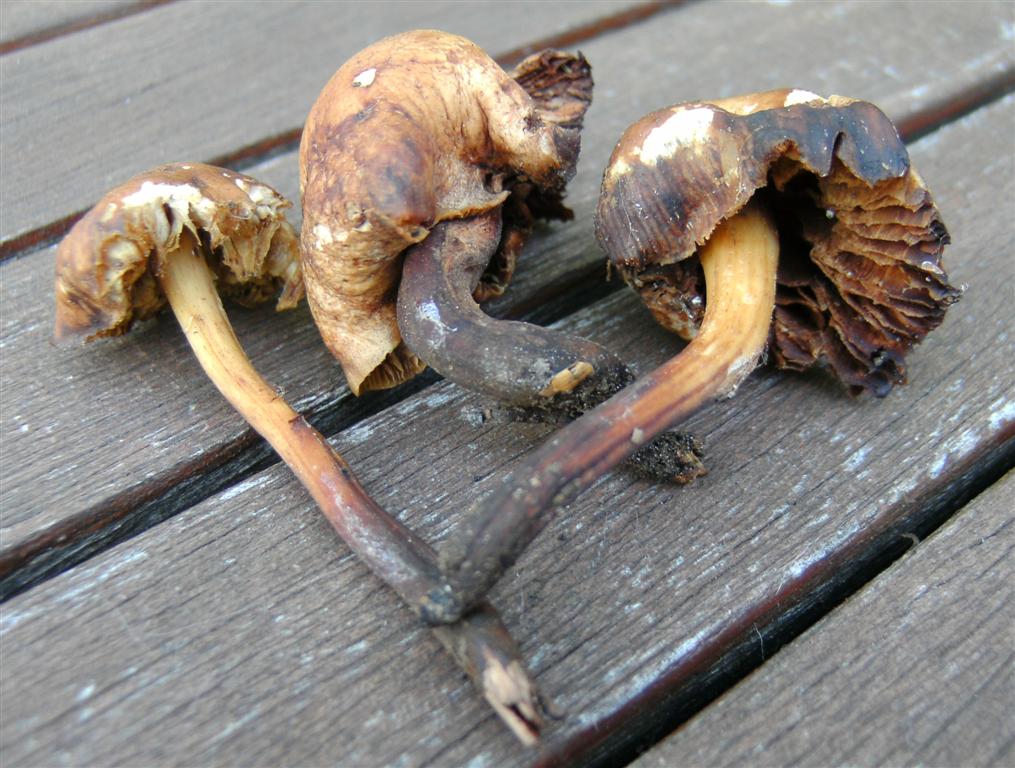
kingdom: Fungi
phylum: Basidiomycota
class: Agaricomycetes
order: Agaricales
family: Omphalotaceae
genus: Gymnopus
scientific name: Gymnopus fusipes
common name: tenstokket fladhat
